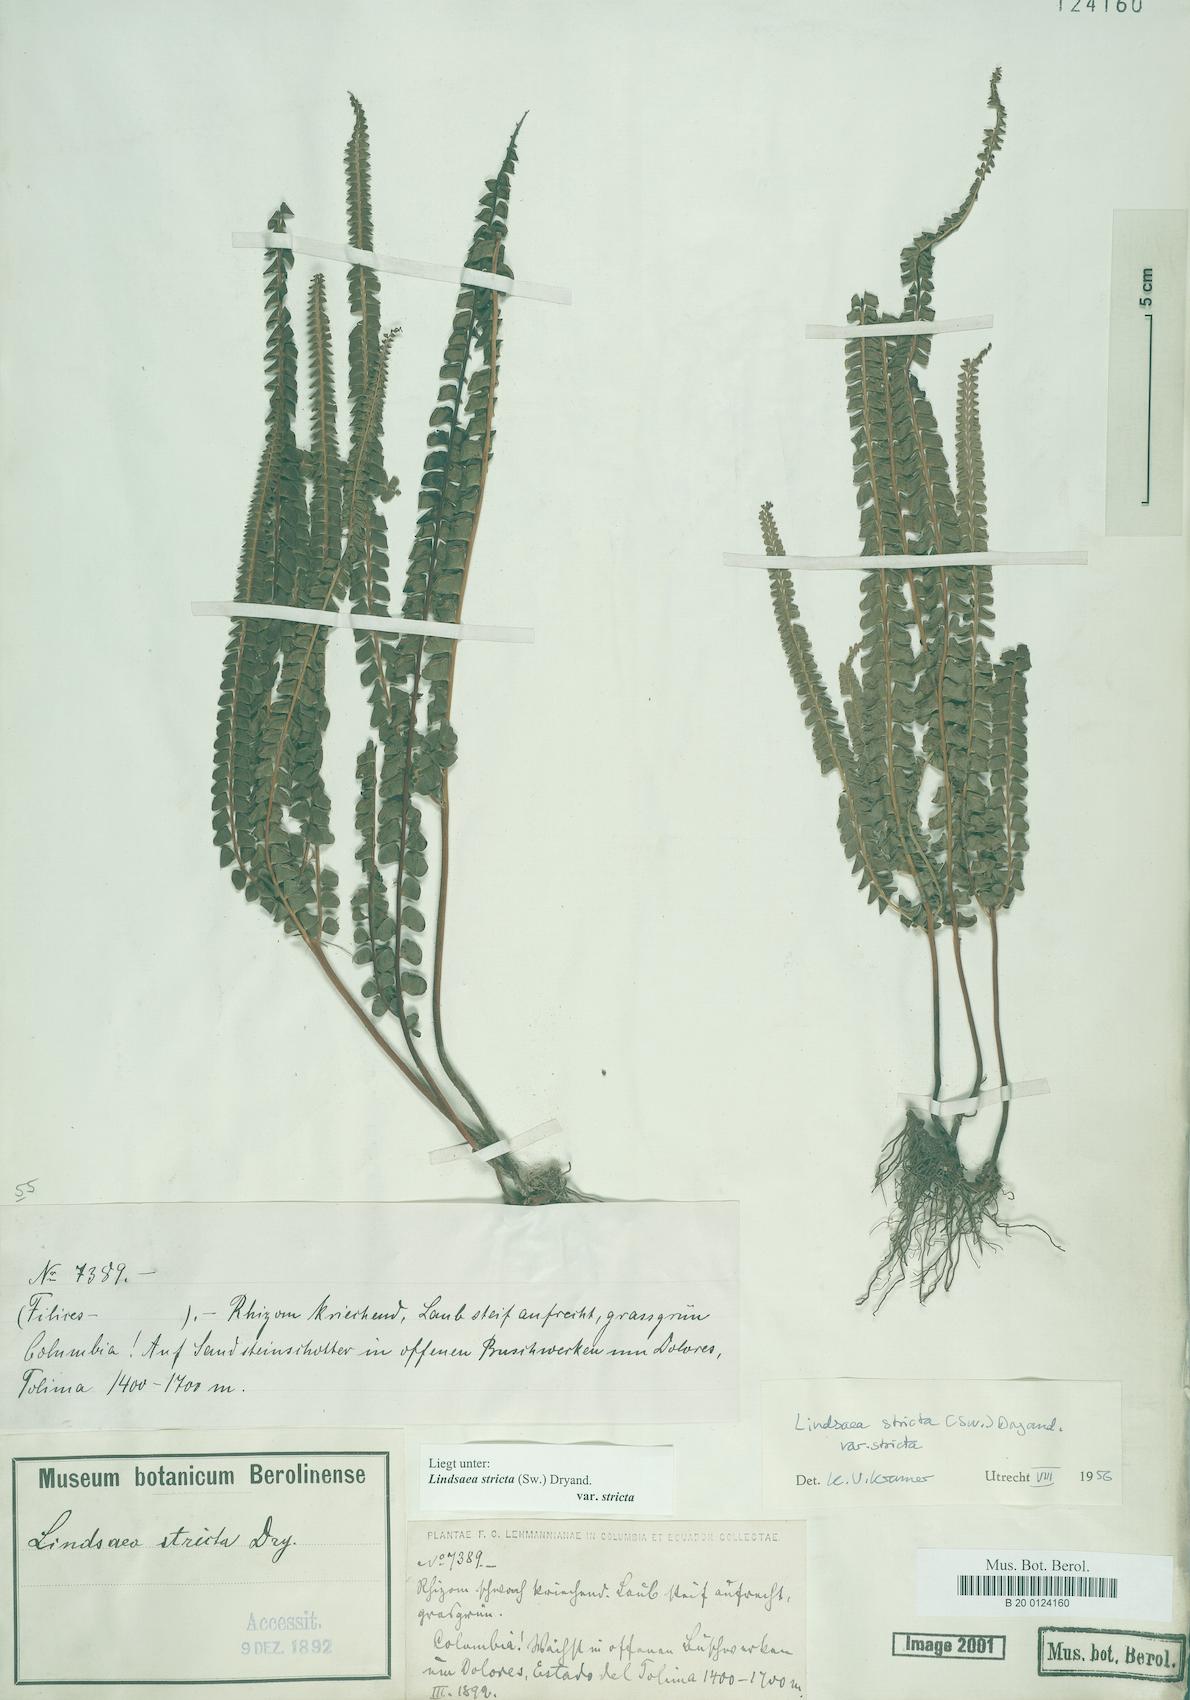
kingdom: Plantae
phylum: Tracheophyta
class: Polypodiopsida
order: Polypodiales
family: Lindsaeaceae
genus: Lindsaea
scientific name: Lindsaea stricta
